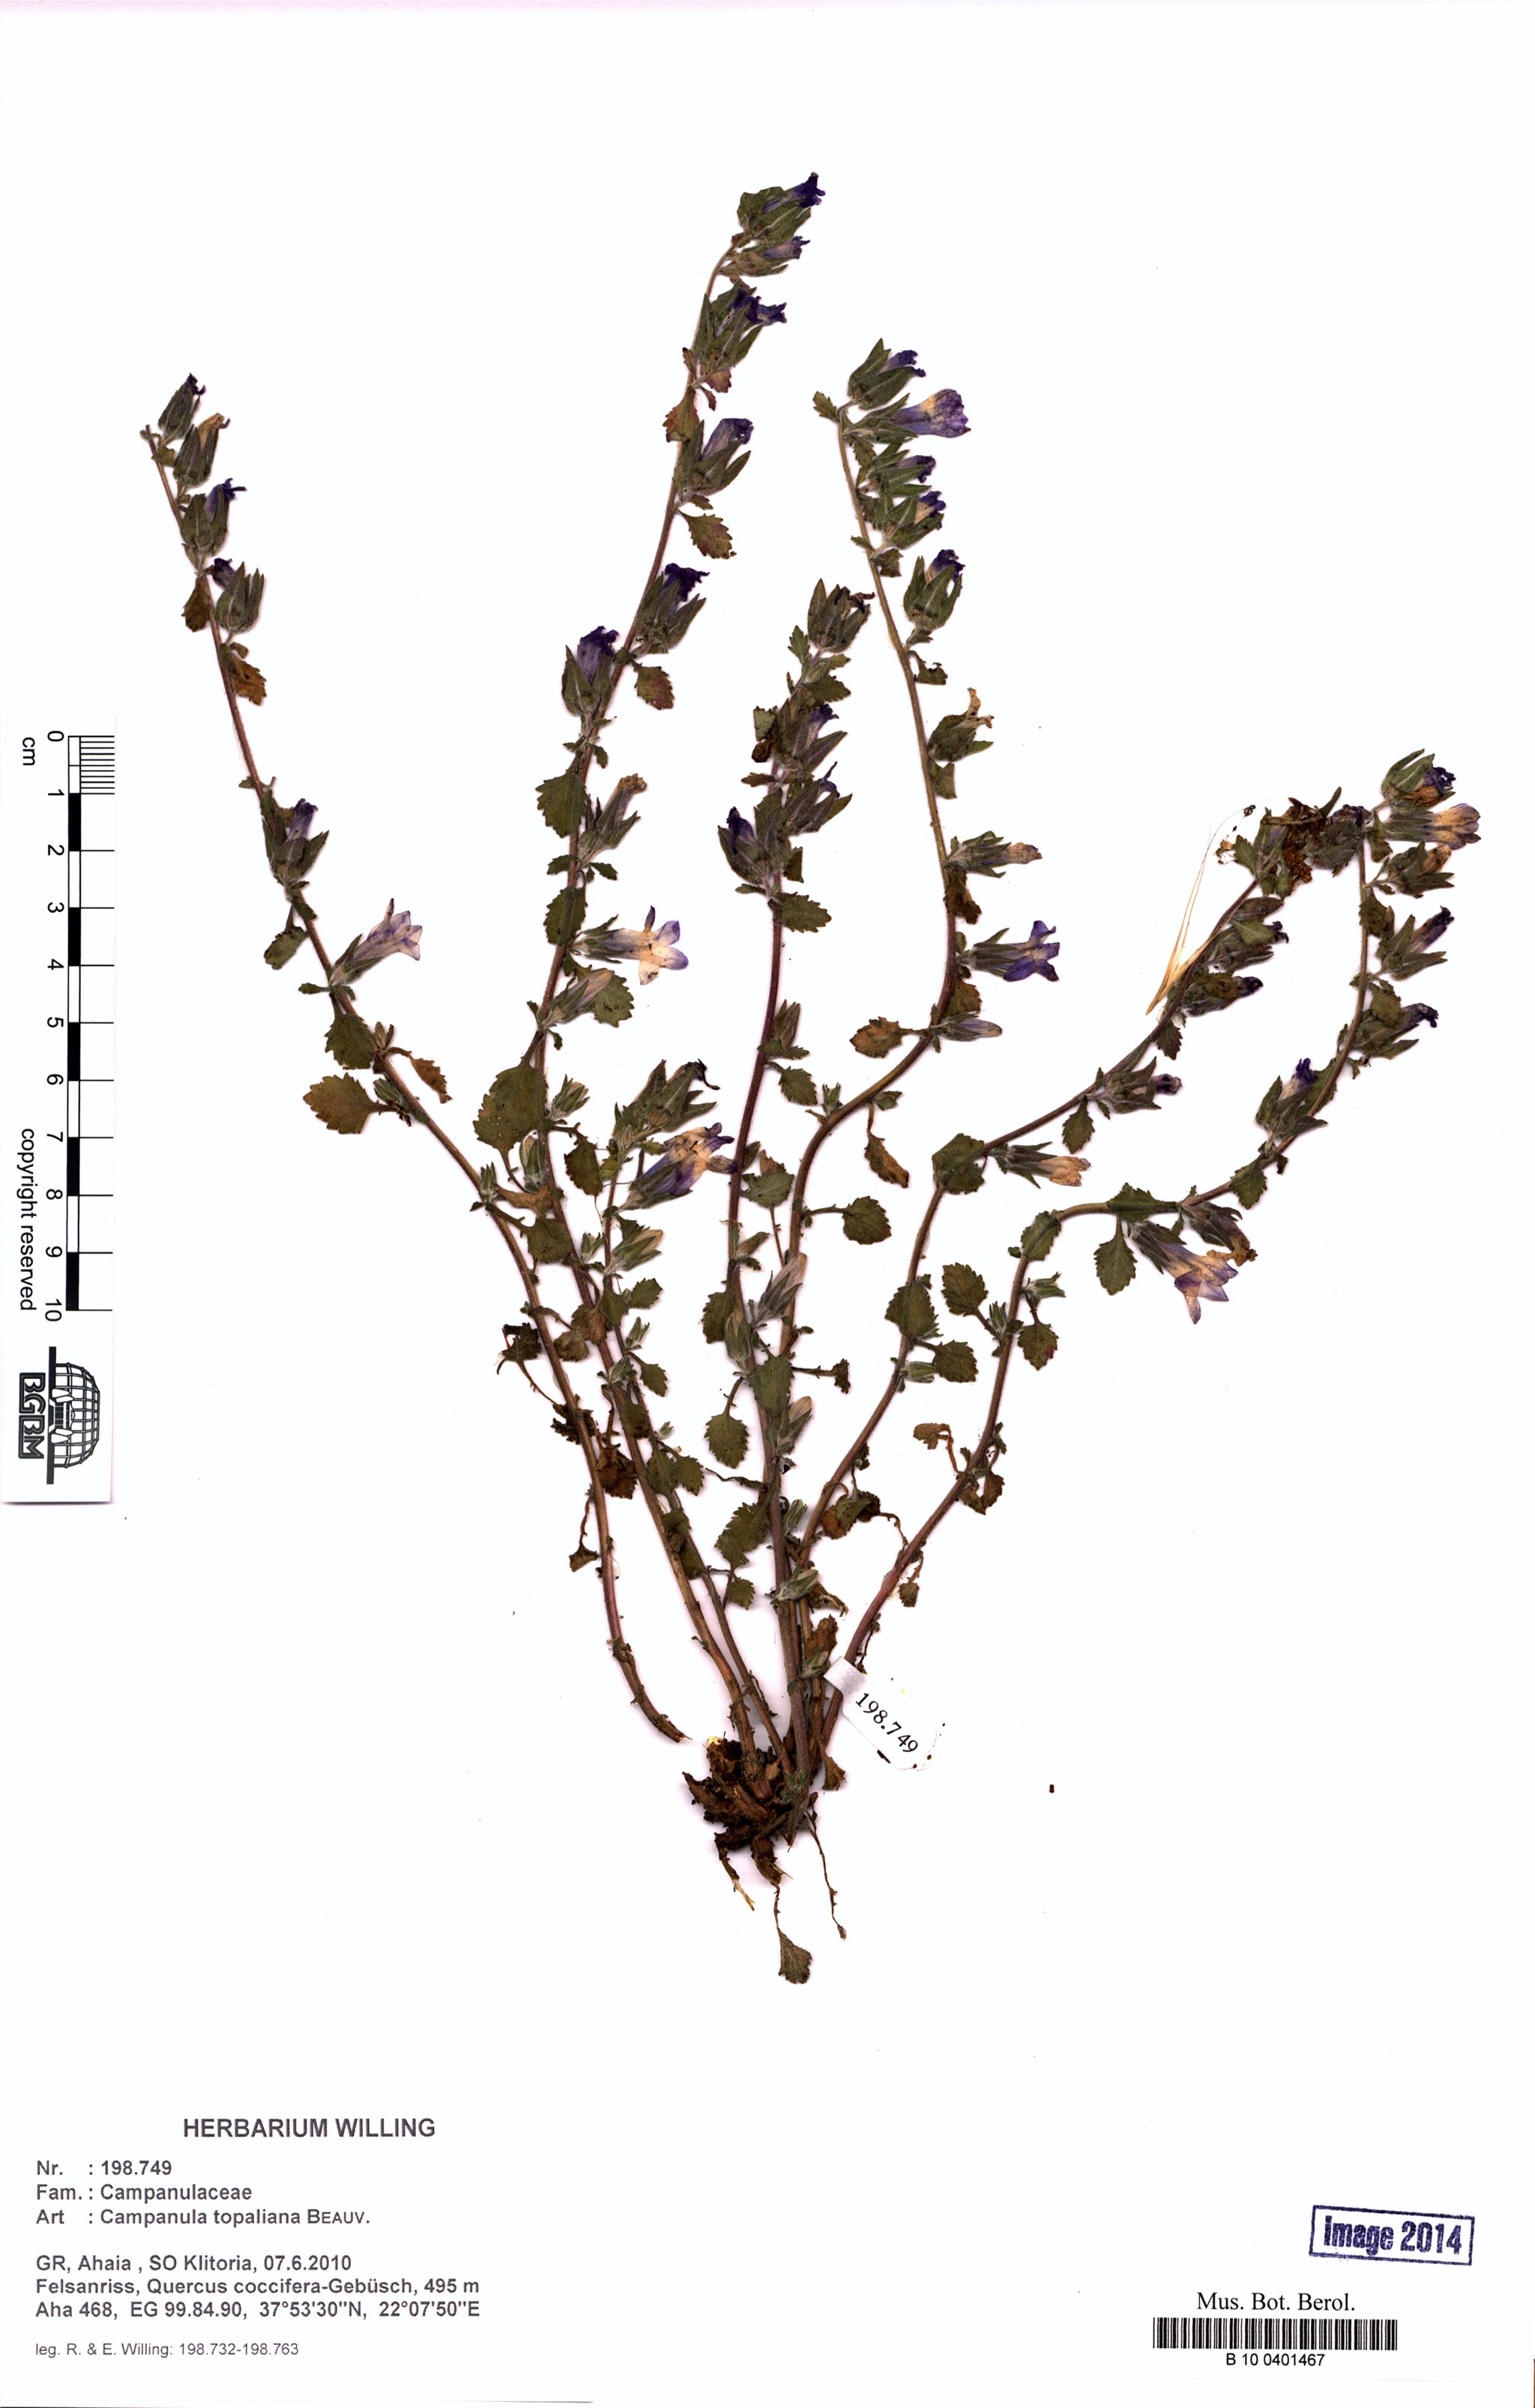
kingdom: Plantae
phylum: Tracheophyta
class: Magnoliopsida
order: Asterales
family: Campanulaceae
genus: Campanula
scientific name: Campanula topaliana
